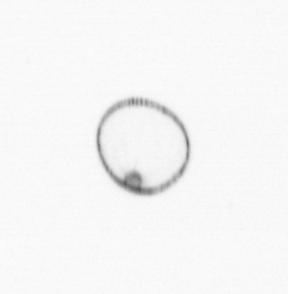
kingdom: Chromista
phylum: Myzozoa
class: Dinophyceae
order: Noctilucales
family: Noctilucaceae
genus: Noctiluca
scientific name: Noctiluca scintillans
